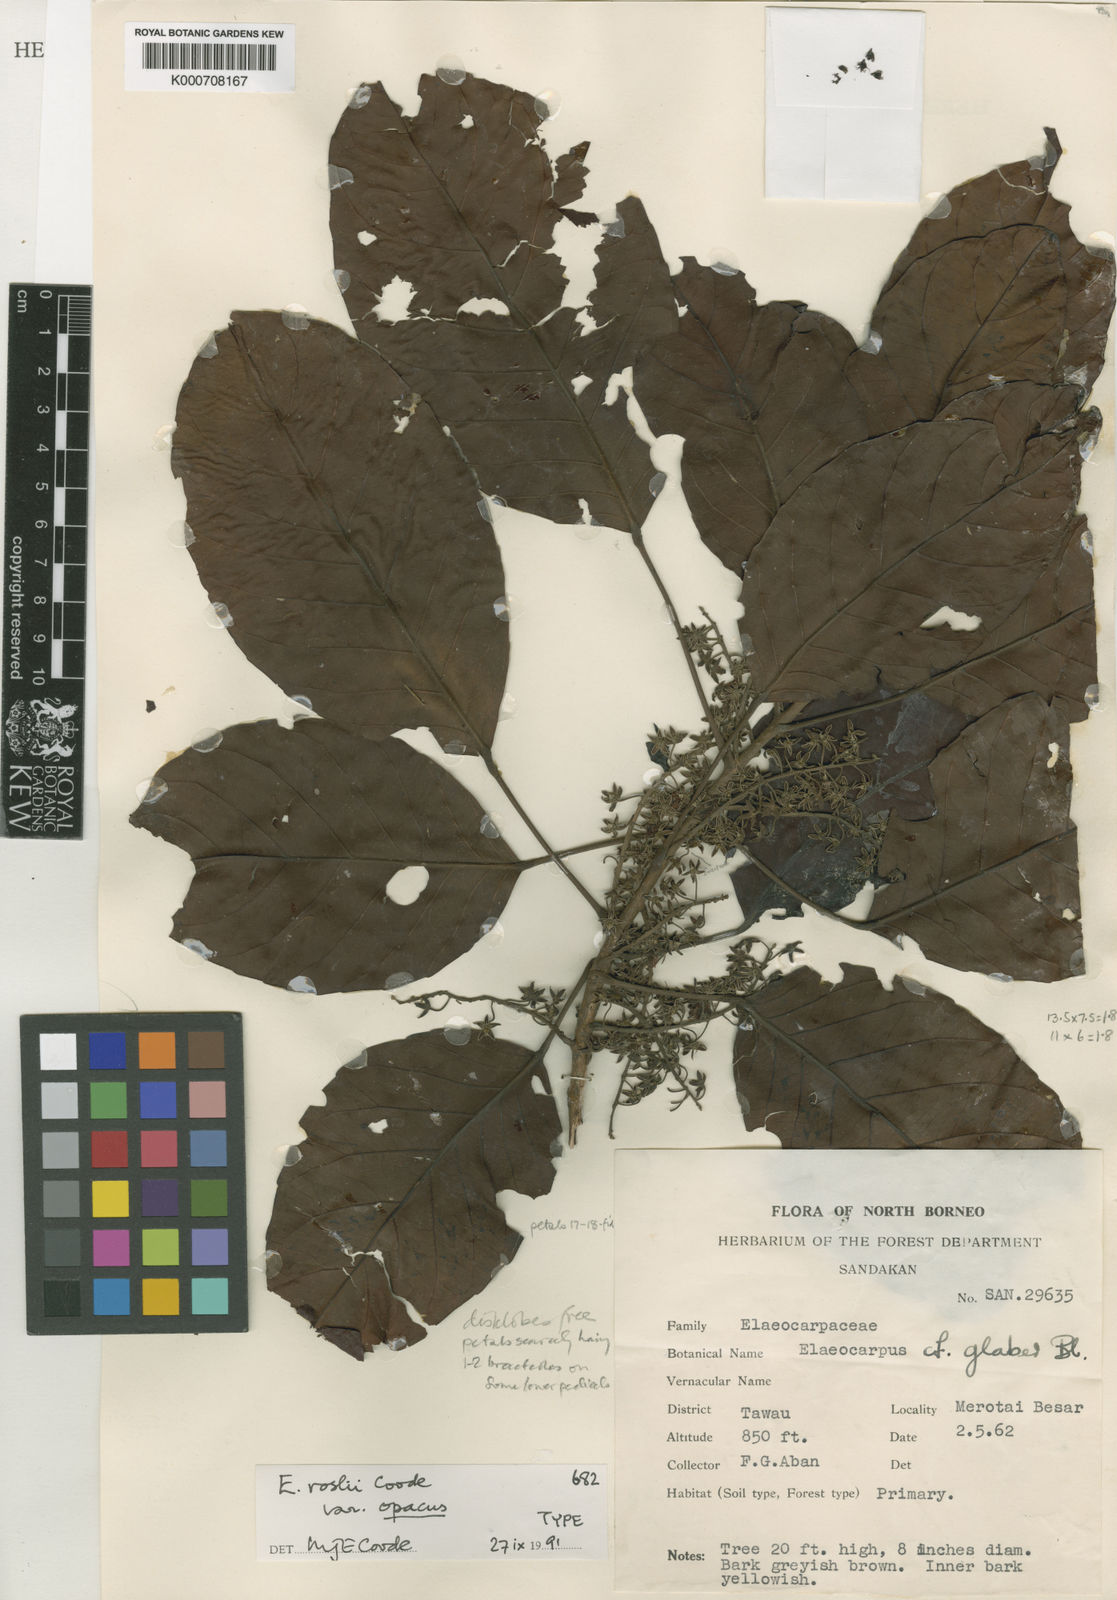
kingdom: Plantae
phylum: Tracheophyta
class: Magnoliopsida
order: Oxalidales
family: Elaeocarpaceae
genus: Elaeocarpus
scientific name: Elaeocarpus roslii
